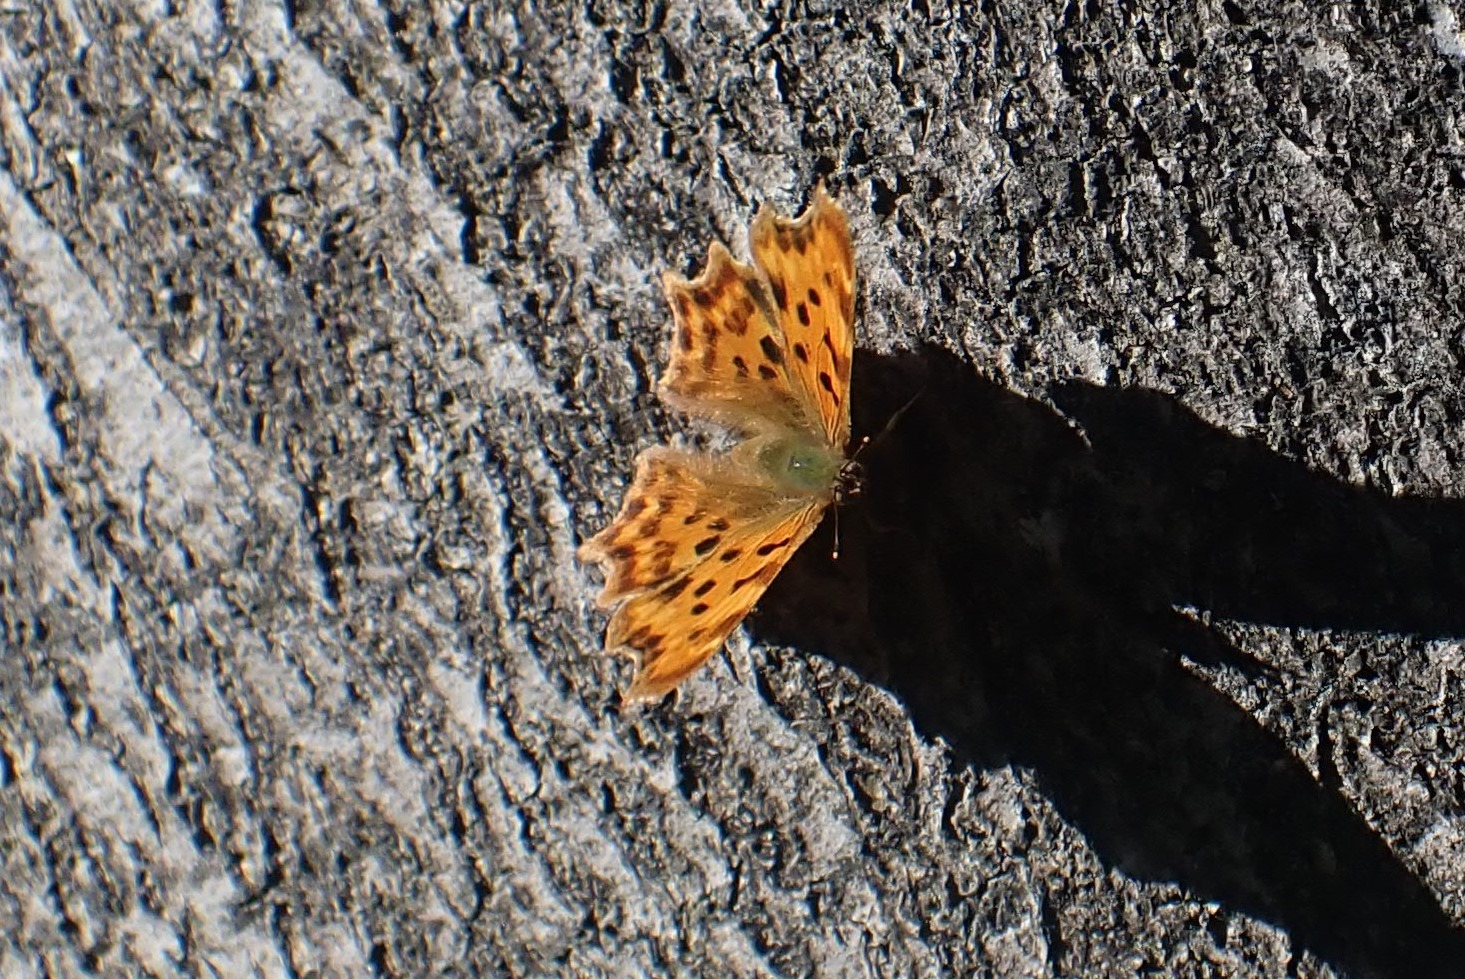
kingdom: Animalia
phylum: Arthropoda
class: Insecta
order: Lepidoptera
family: Nymphalidae
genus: Polygonia
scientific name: Polygonia c-album
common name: Det hvide C
